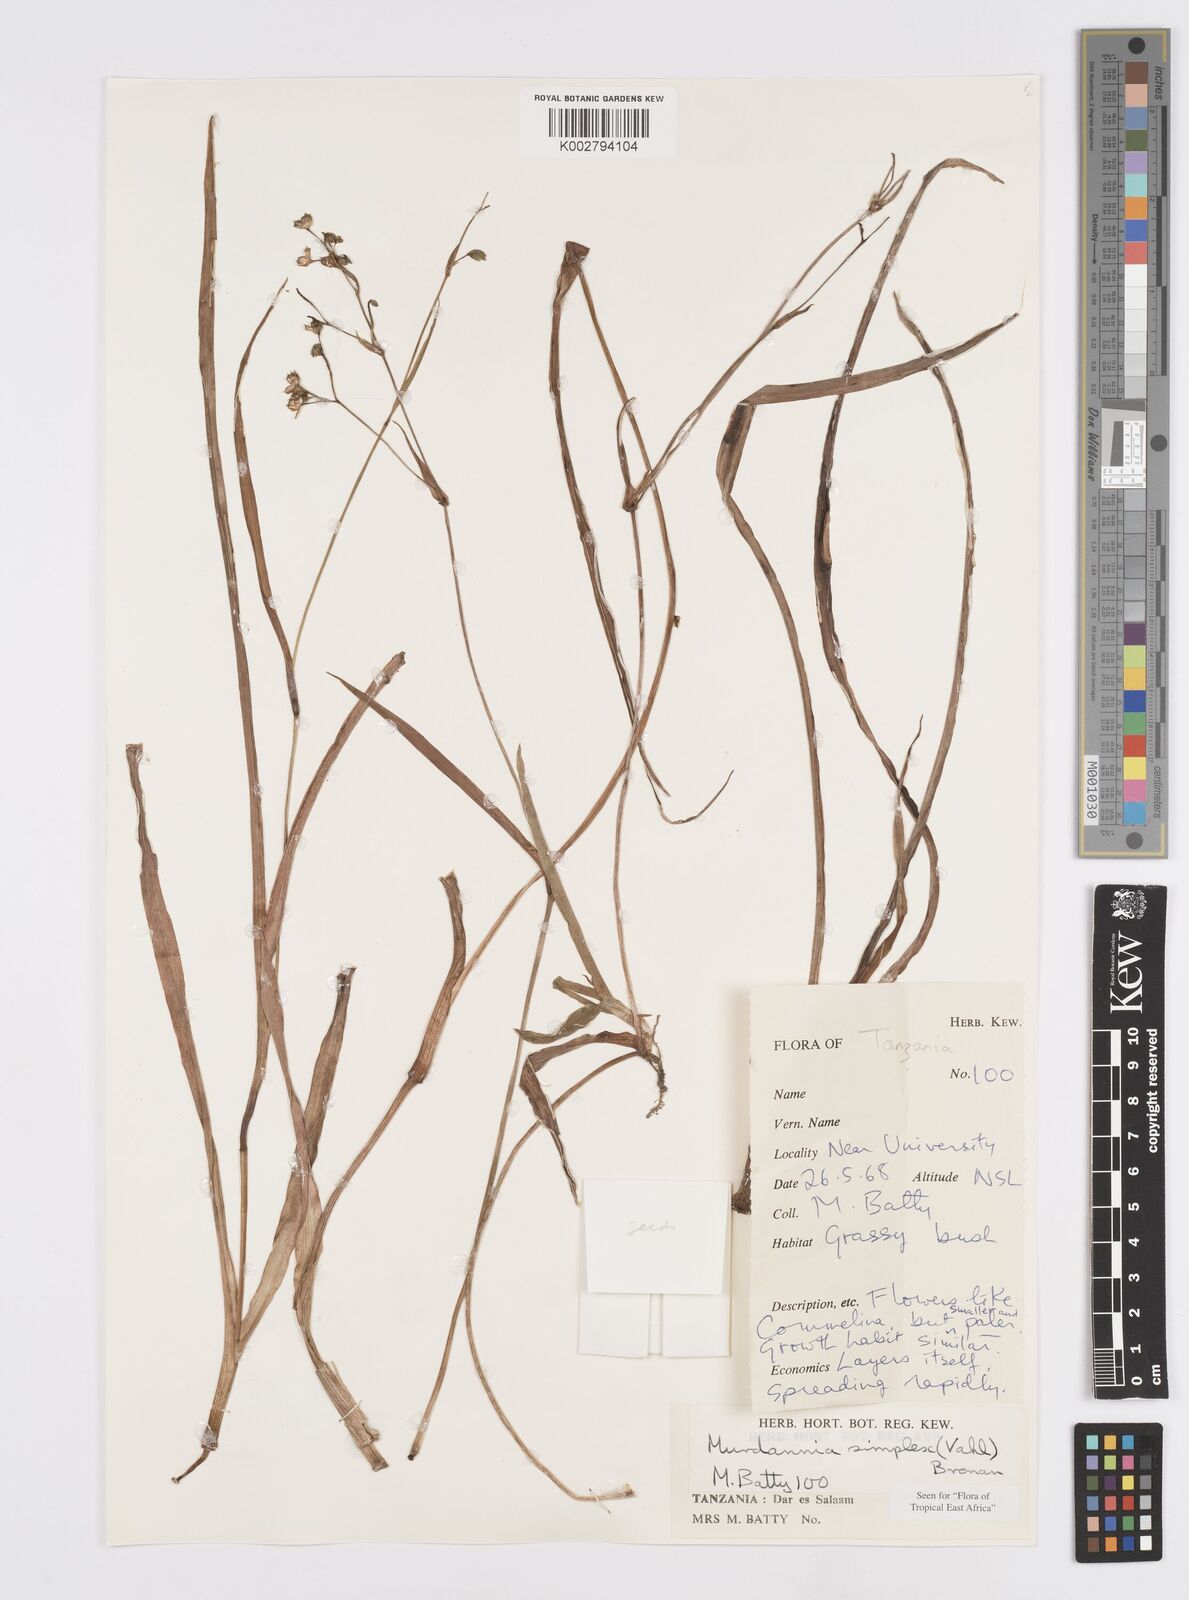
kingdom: Plantae
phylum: Tracheophyta
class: Liliopsida
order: Commelinales
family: Commelinaceae
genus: Murdannia
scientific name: Murdannia simplex
